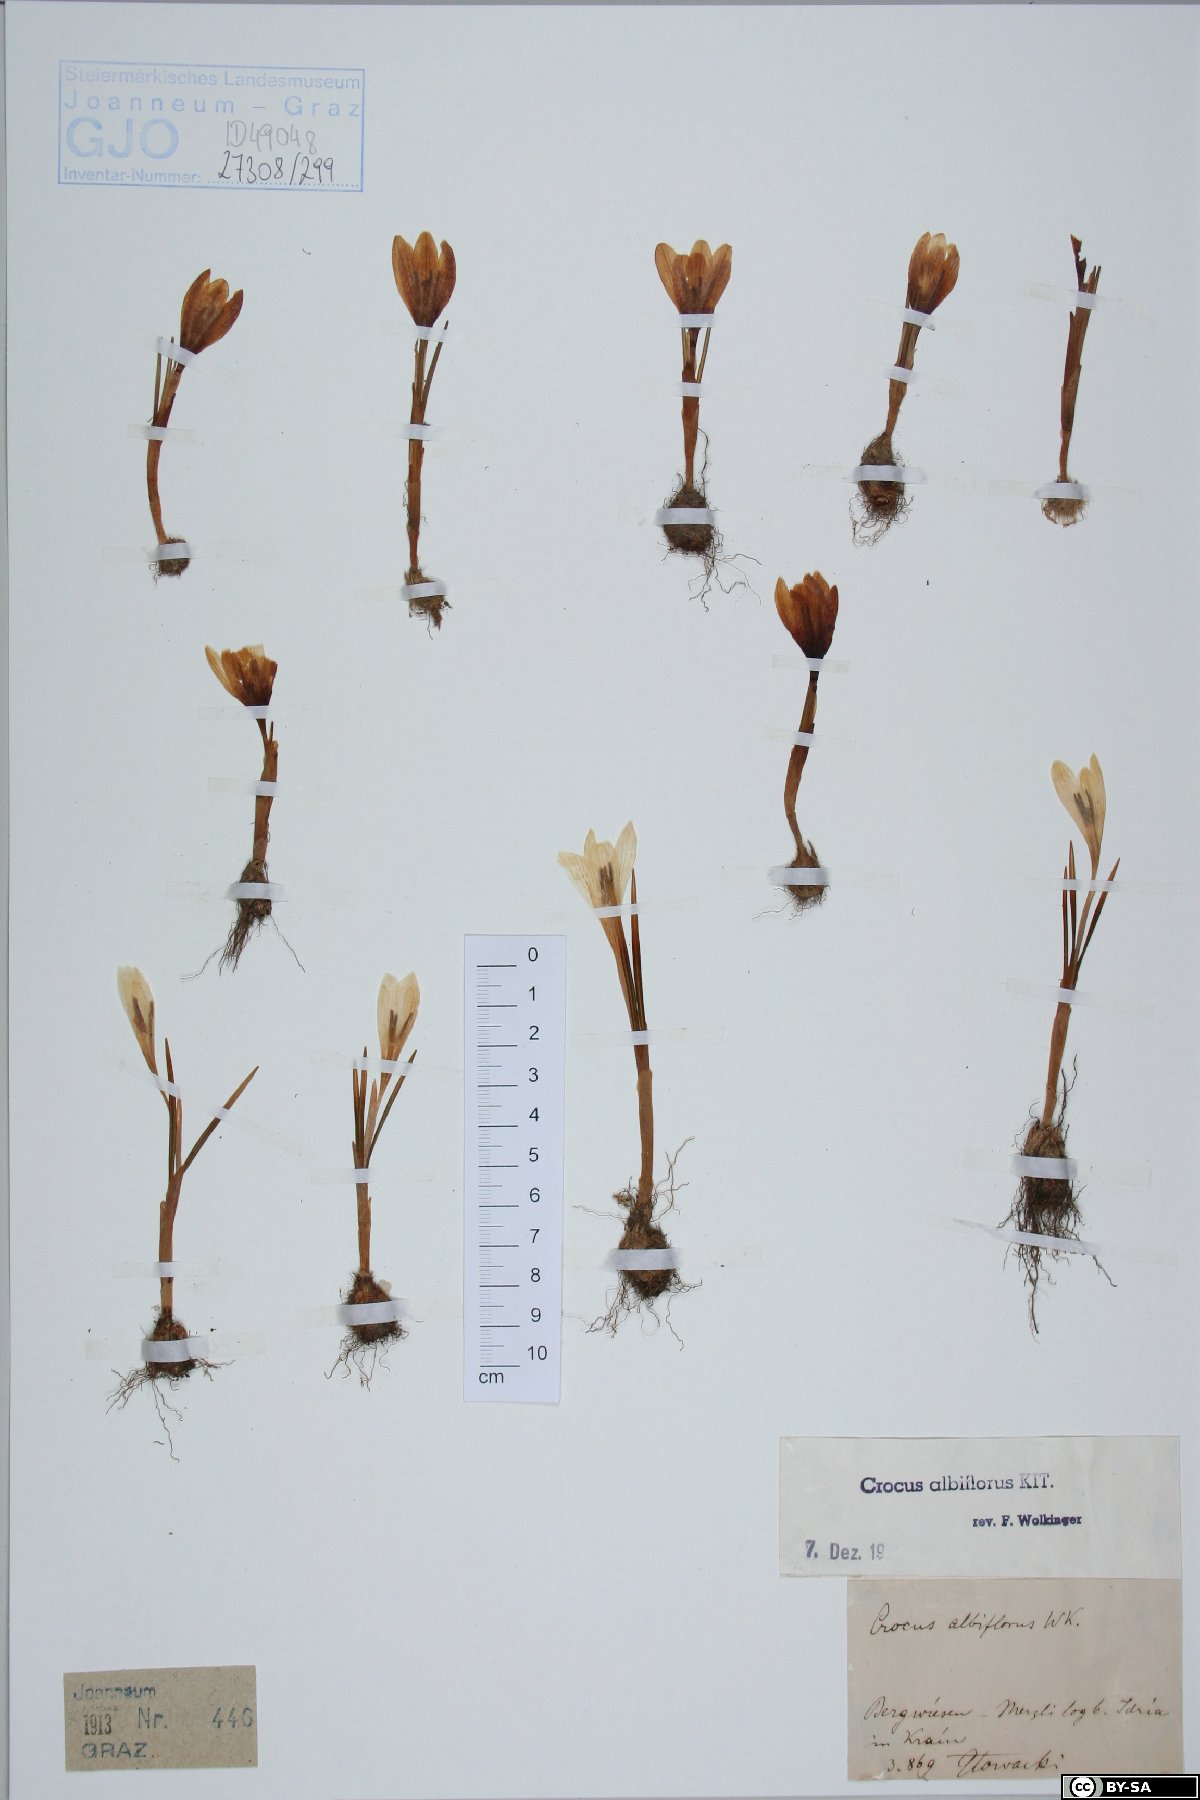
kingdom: Plantae
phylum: Tracheophyta
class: Liliopsida
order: Asparagales
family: Iridaceae
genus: Crocus
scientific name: Crocus vernus
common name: Spring crocus
